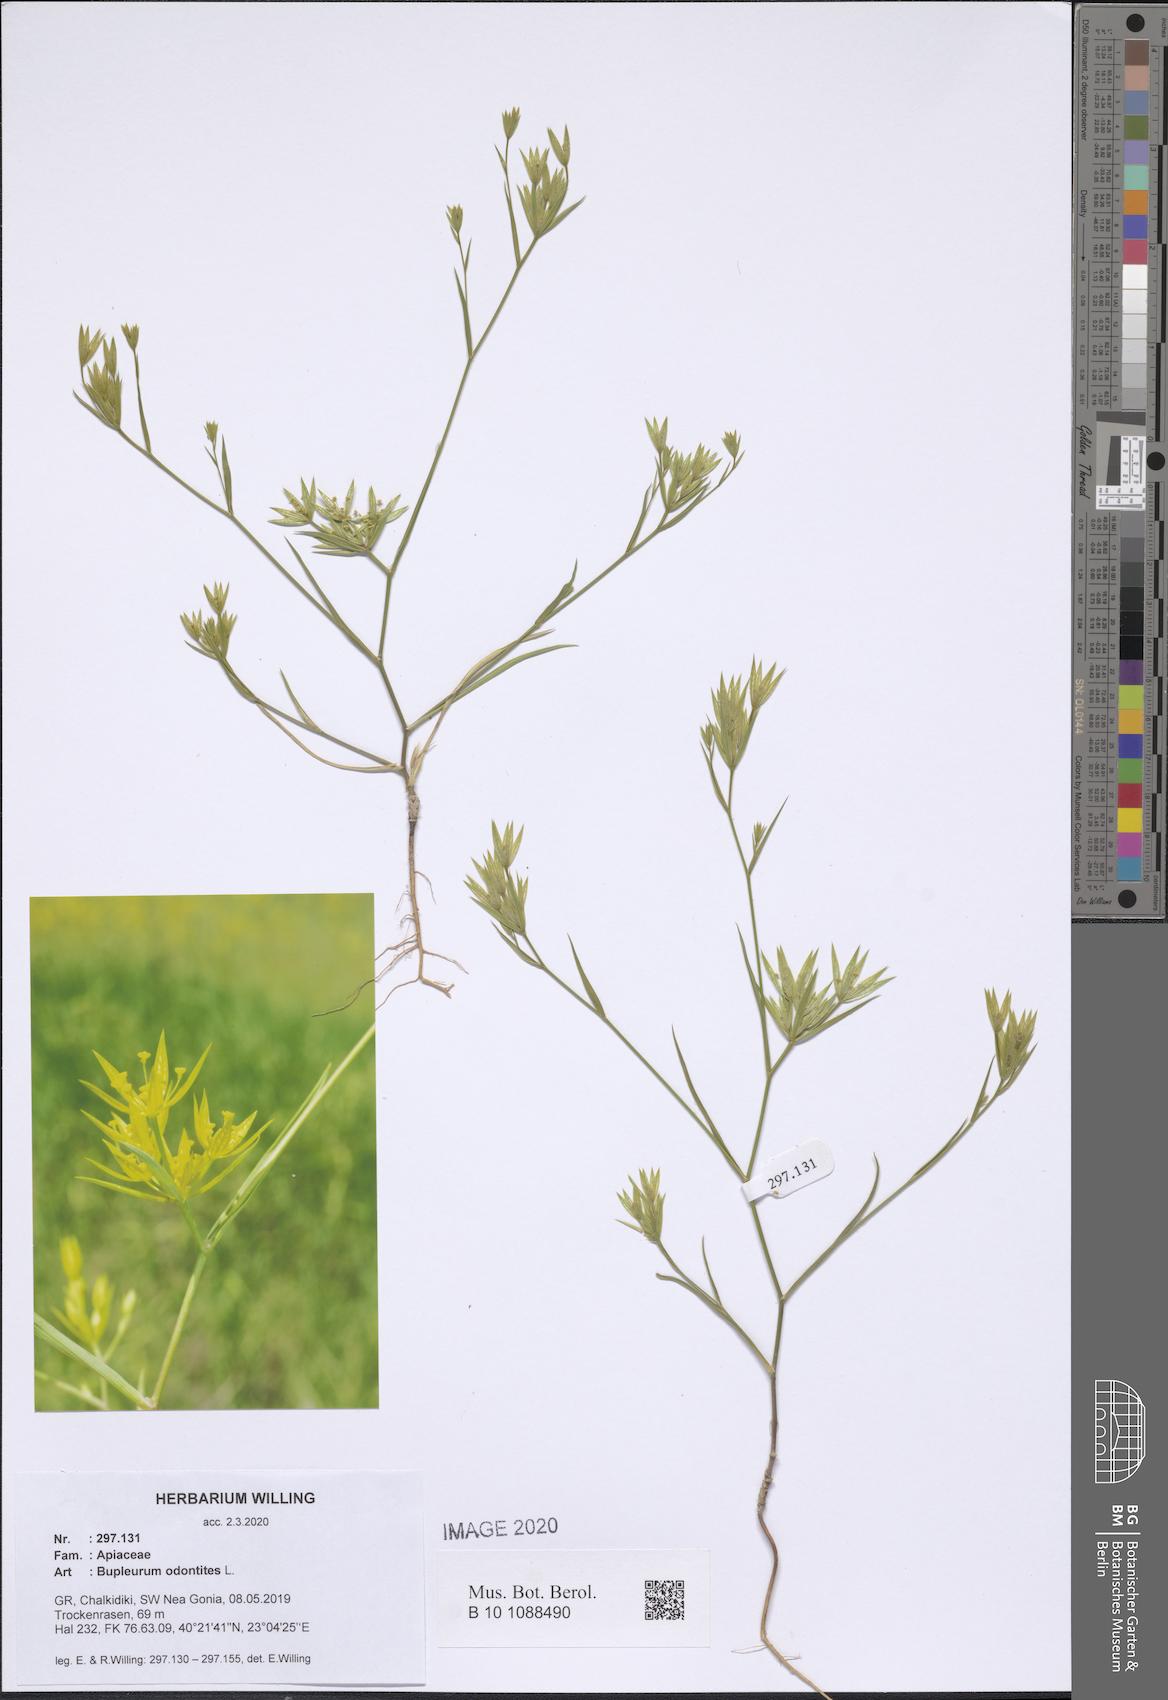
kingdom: Plantae
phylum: Tracheophyta
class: Magnoliopsida
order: Apiales
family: Apiaceae
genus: Bupleurum
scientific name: Bupleurum odontites
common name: Narrowleaf thorow wax
